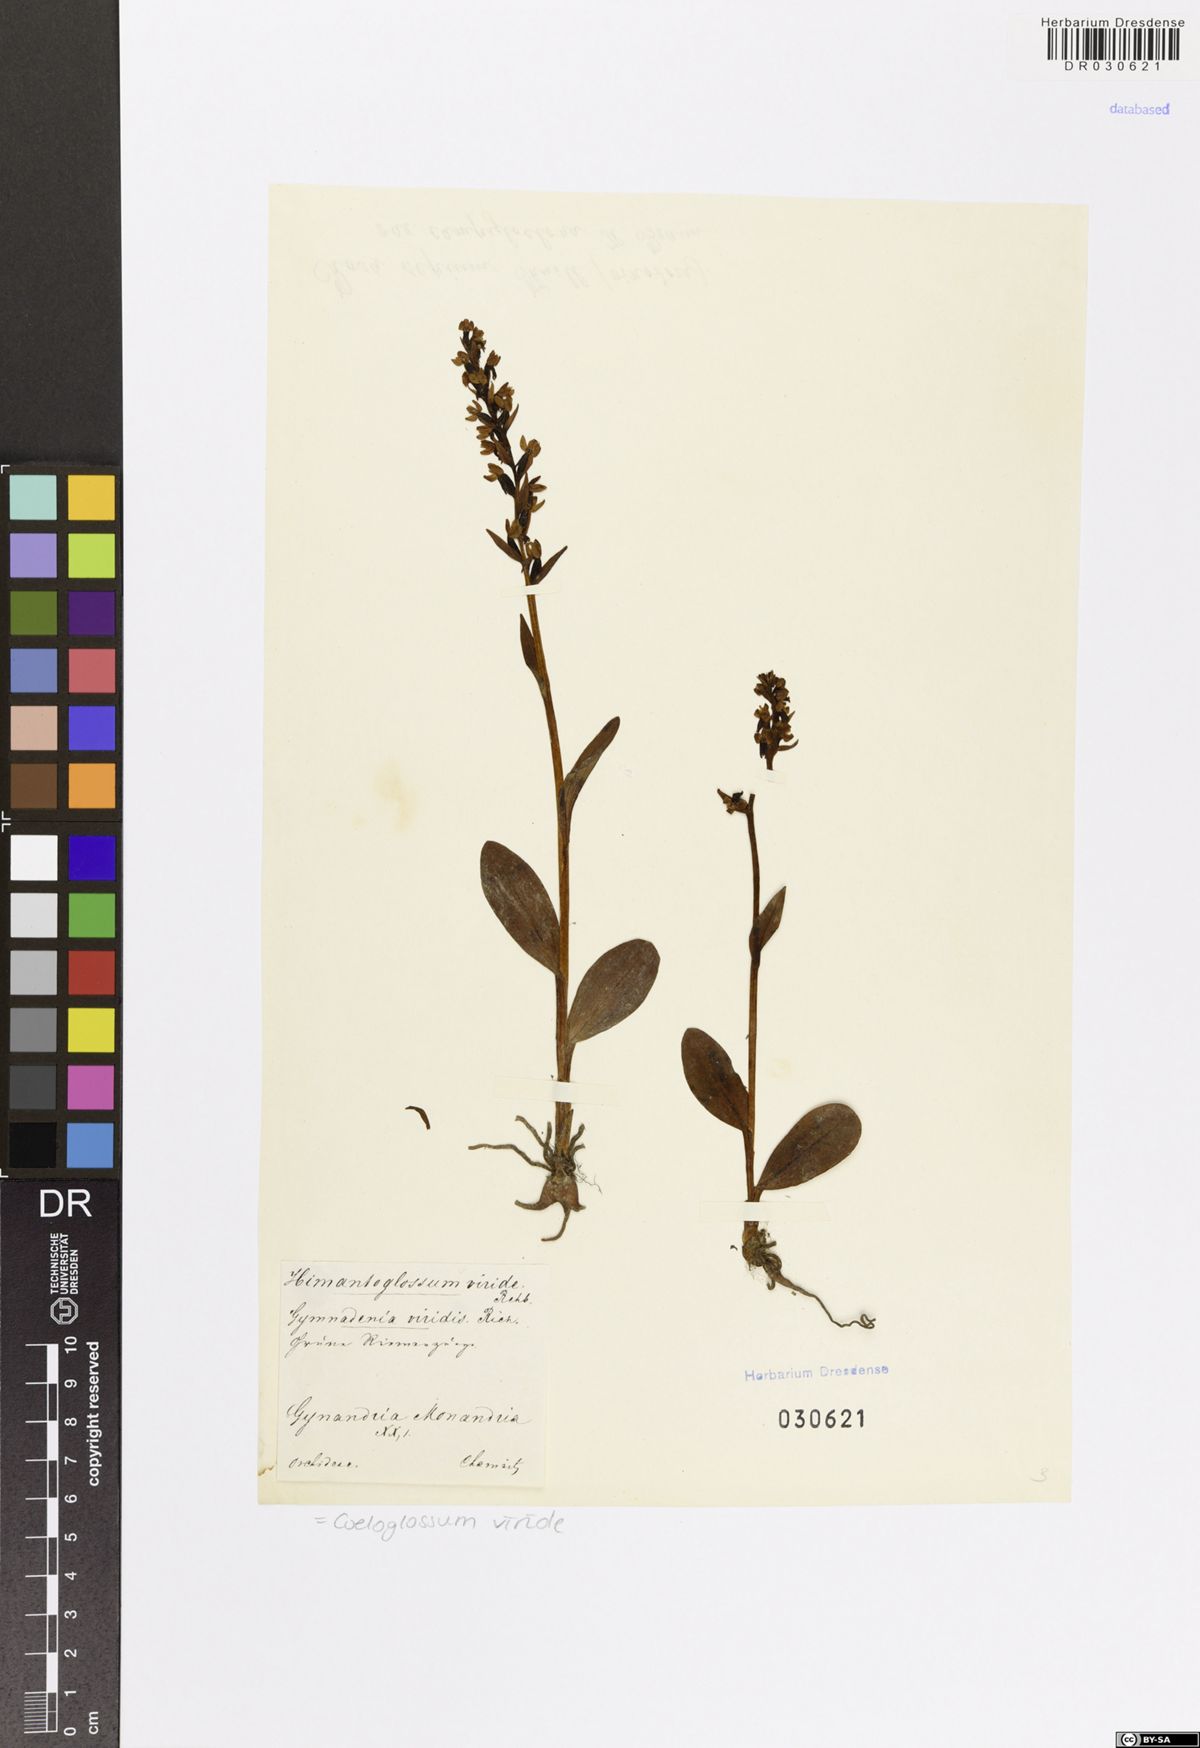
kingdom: Plantae
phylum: Tracheophyta
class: Liliopsida
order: Asparagales
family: Orchidaceae
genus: Dactylorhiza
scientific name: Dactylorhiza viridis
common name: Longbract frog orchid
